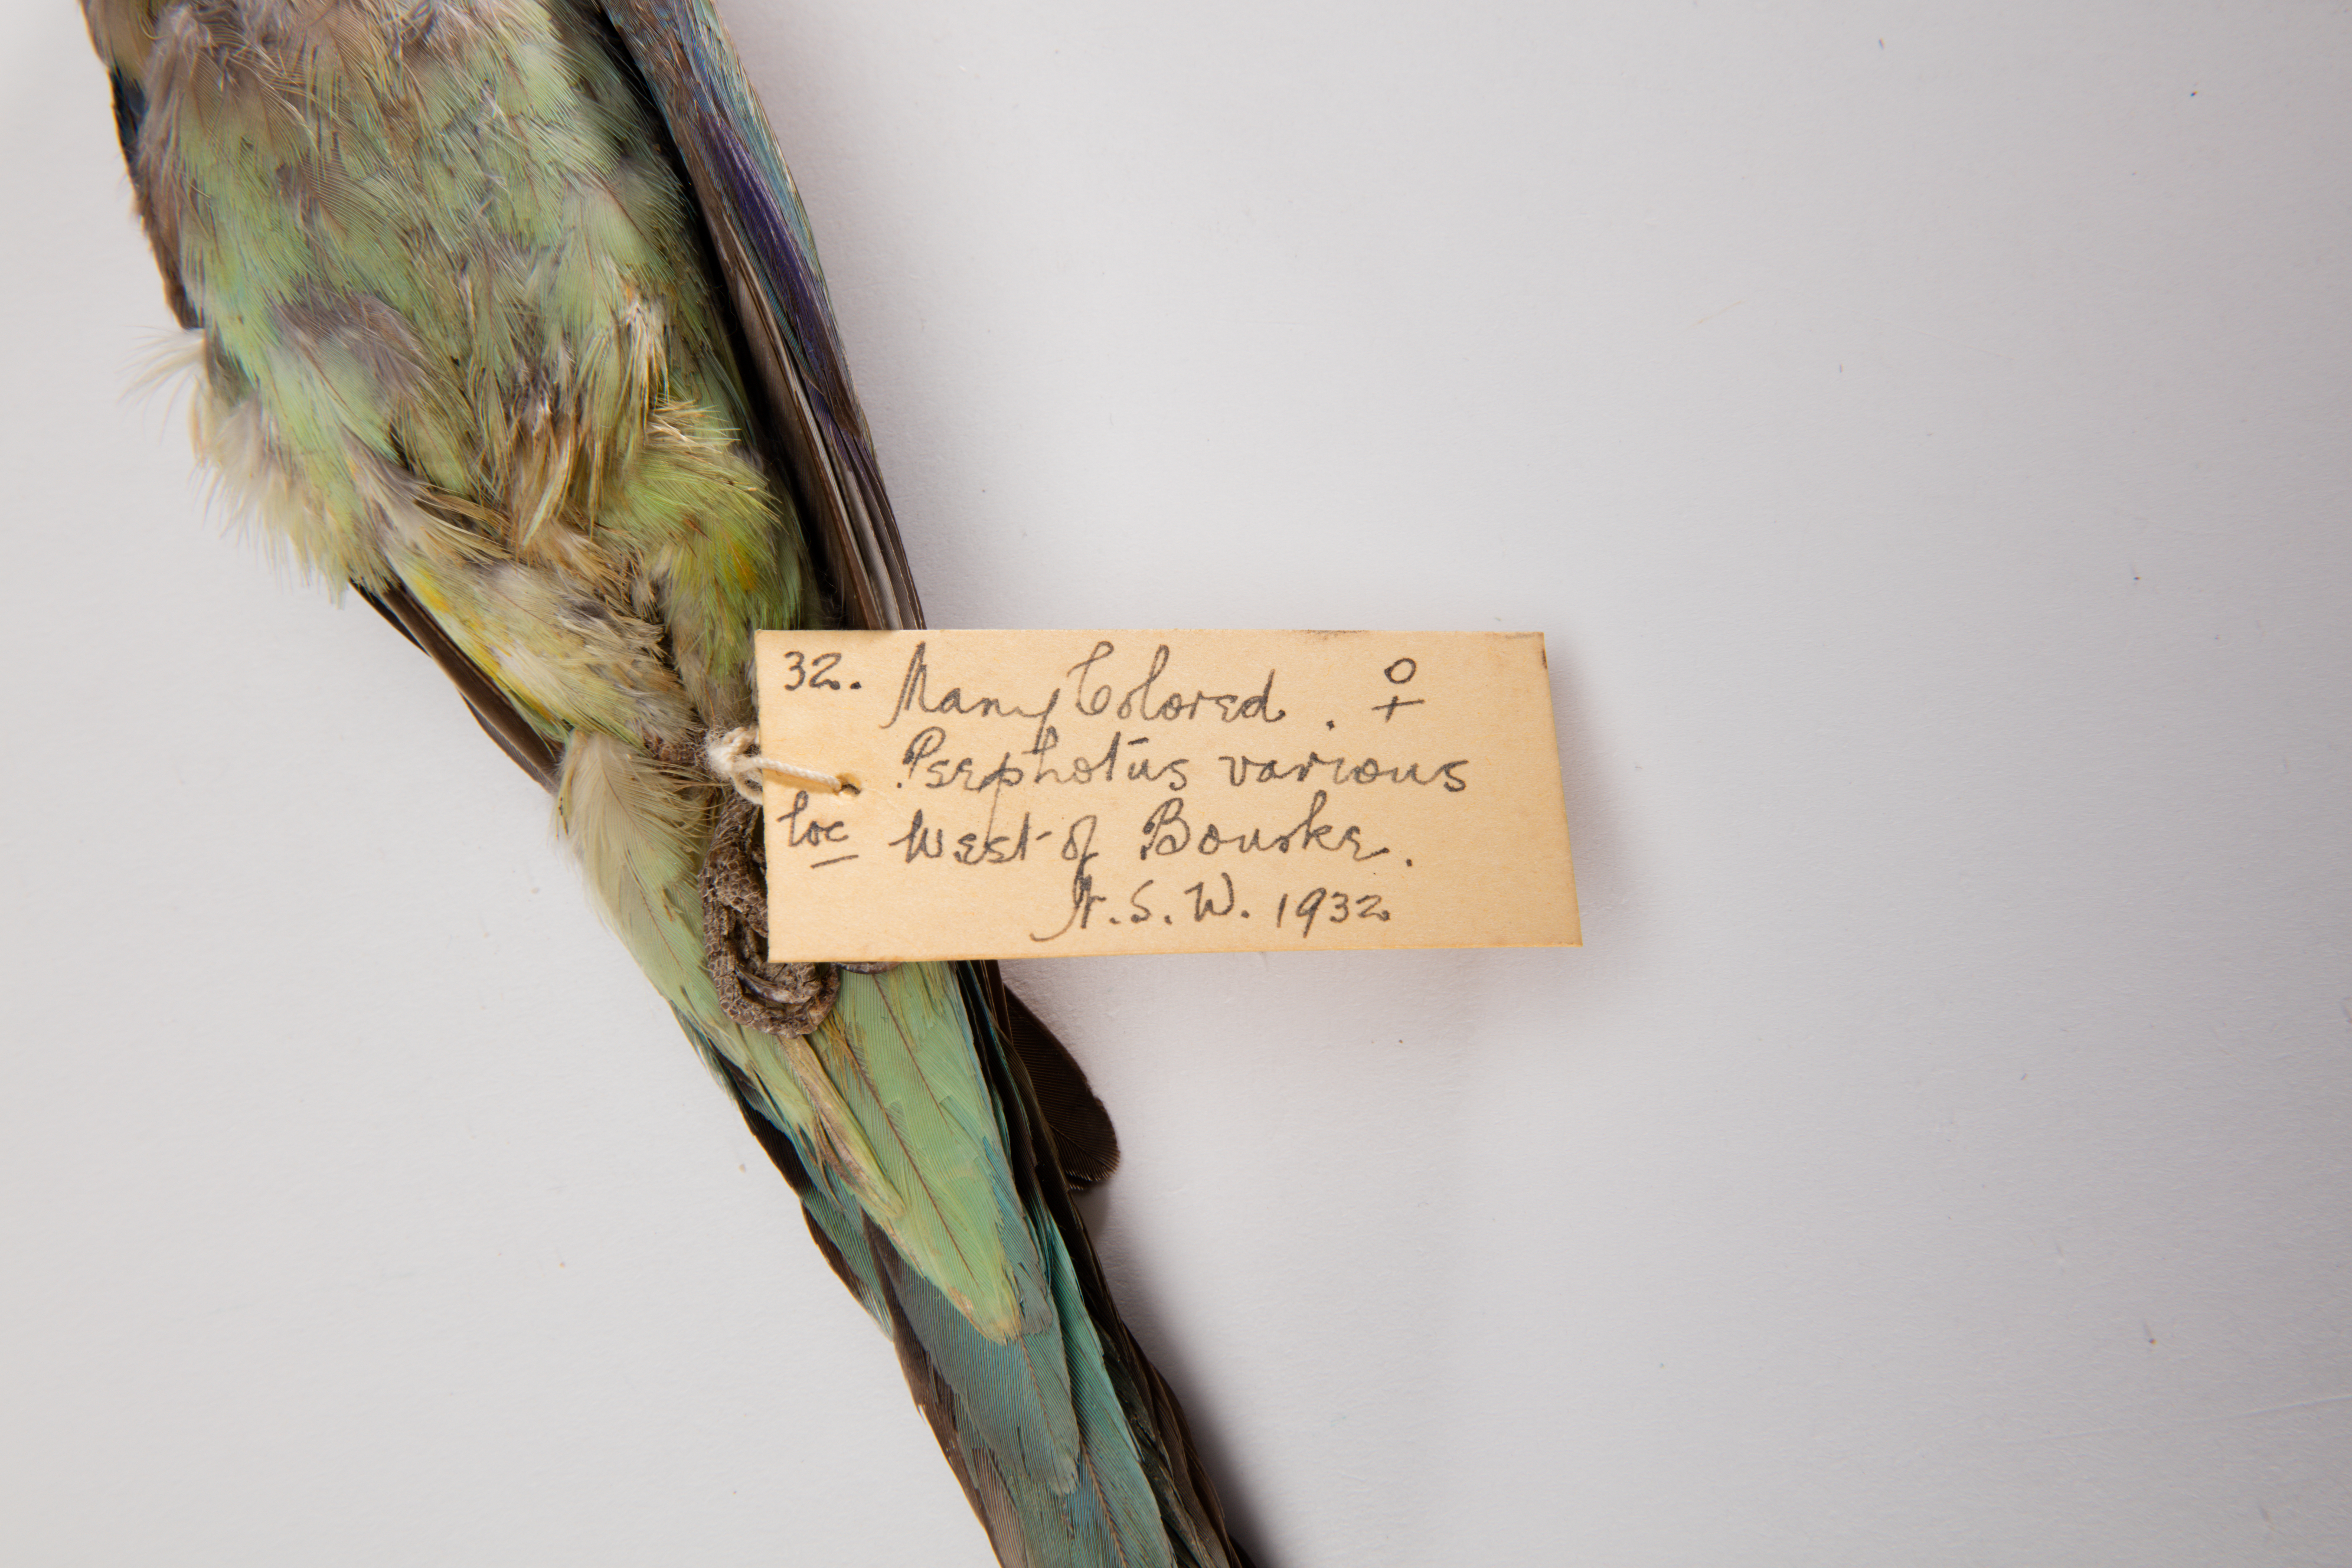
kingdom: Animalia
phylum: Chordata
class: Aves
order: Psittaciformes
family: Psittacidae
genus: Psephotus
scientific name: Psephotus varius
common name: Mulga parrot
